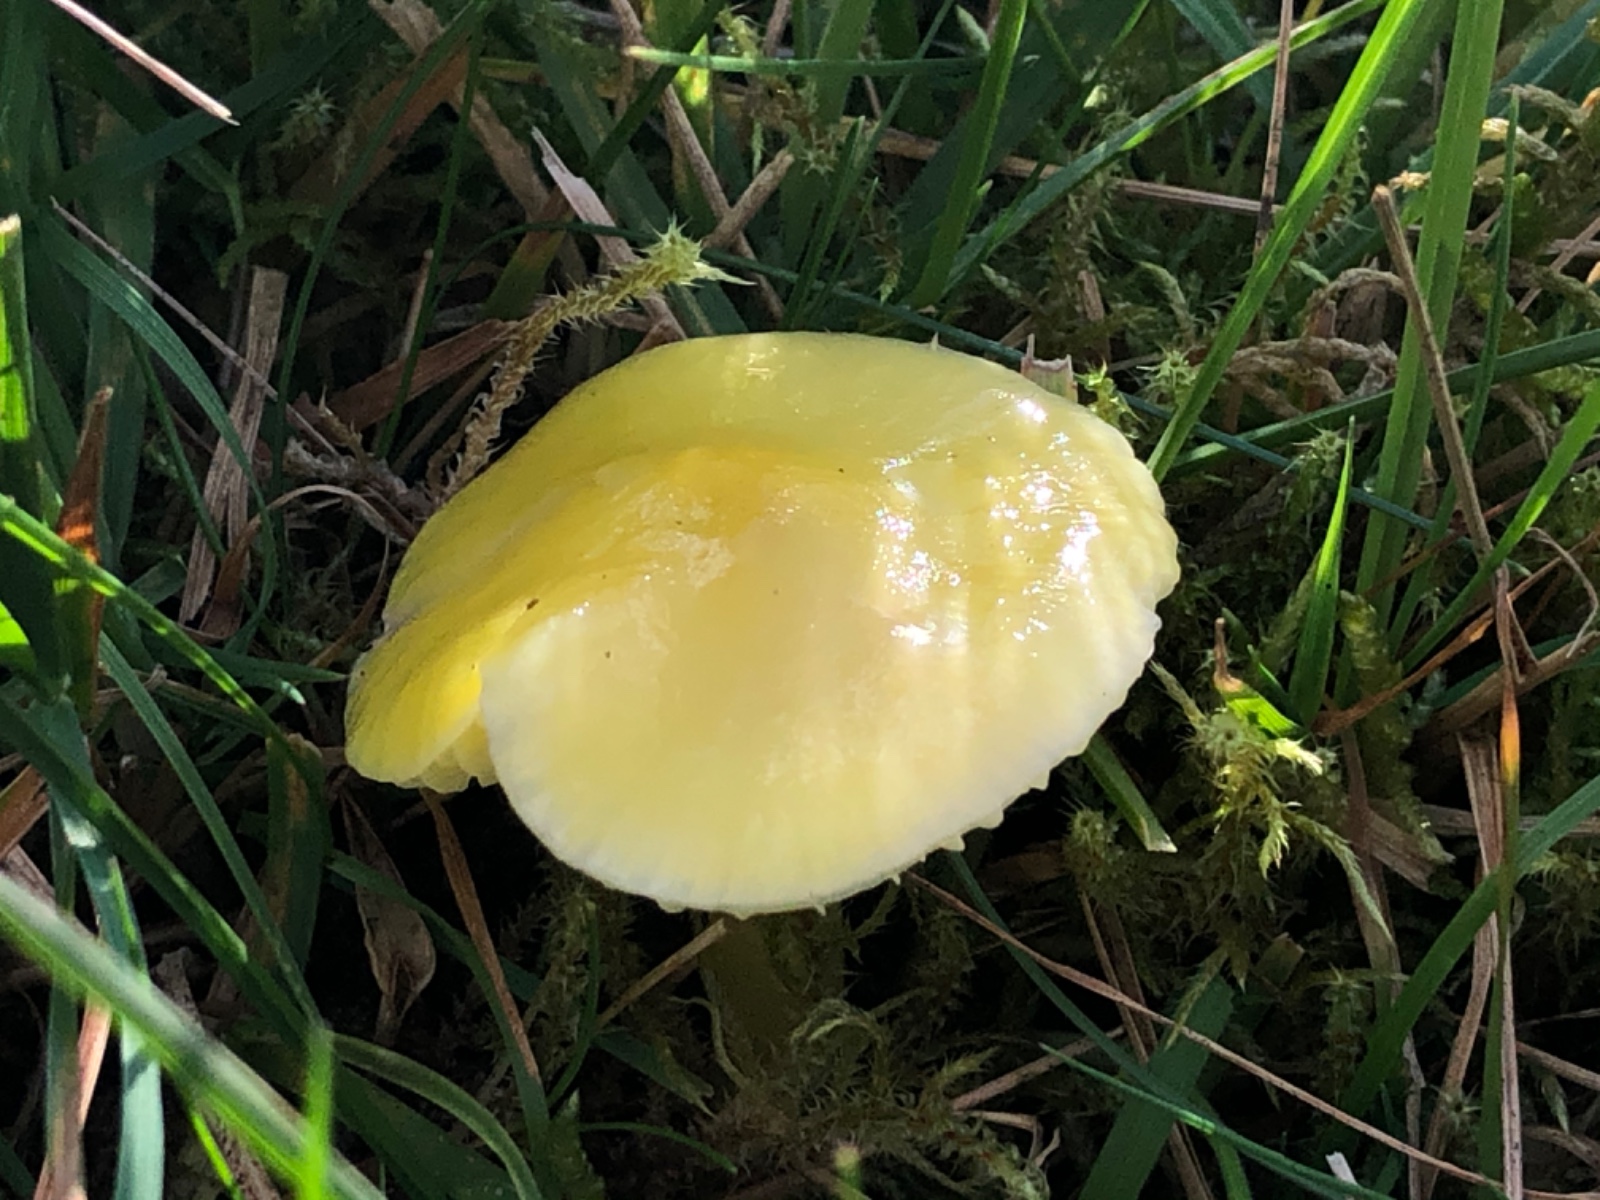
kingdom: Fungi
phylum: Basidiomycota
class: Agaricomycetes
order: Agaricales
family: Hygrophoraceae
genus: Hygrocybe
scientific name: Hygrocybe chlorophana
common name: gul vokshat
